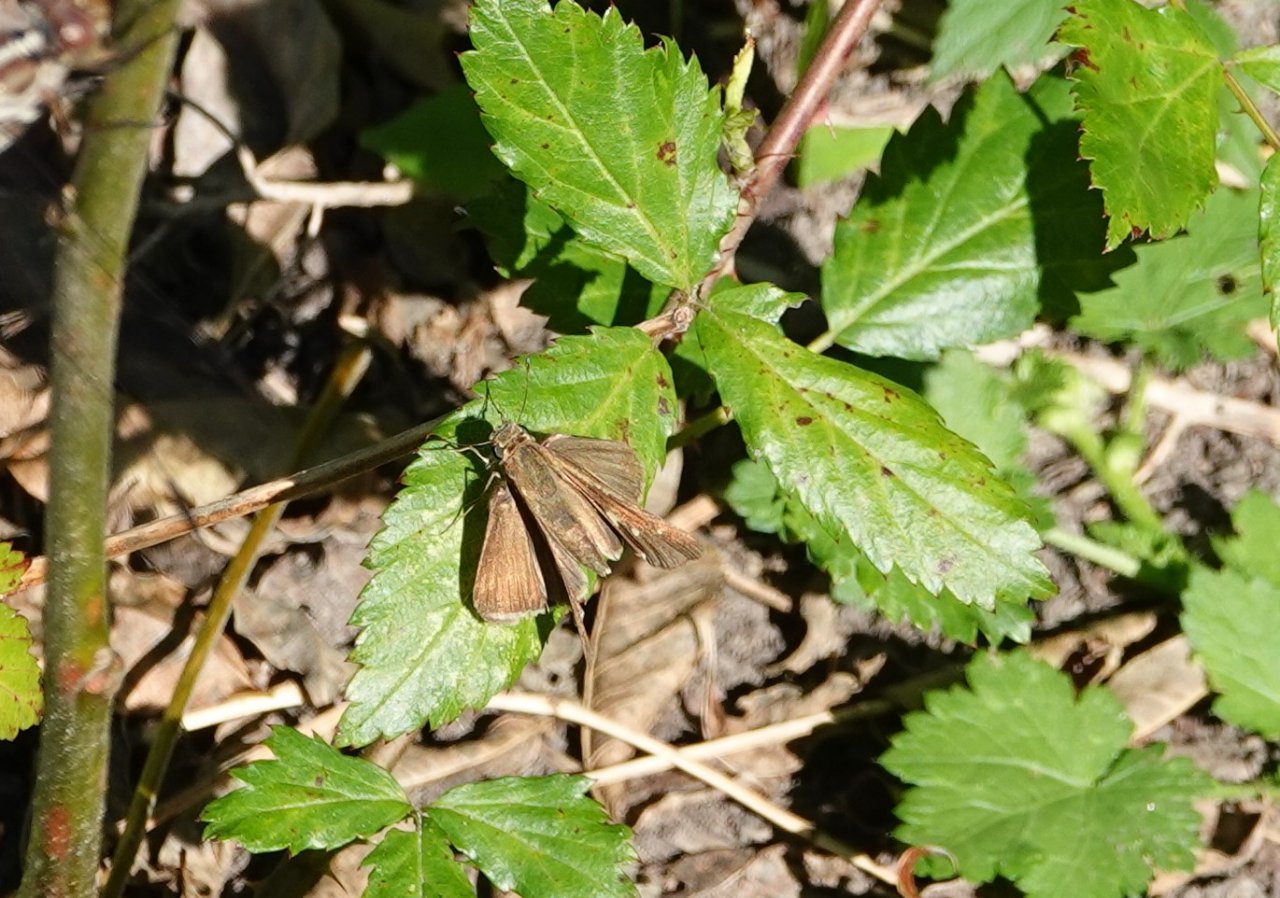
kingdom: Animalia
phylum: Arthropoda
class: Insecta
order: Lepidoptera
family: Hesperiidae
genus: Panoquina
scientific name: Panoquina ocola
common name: Ocola Skipper
